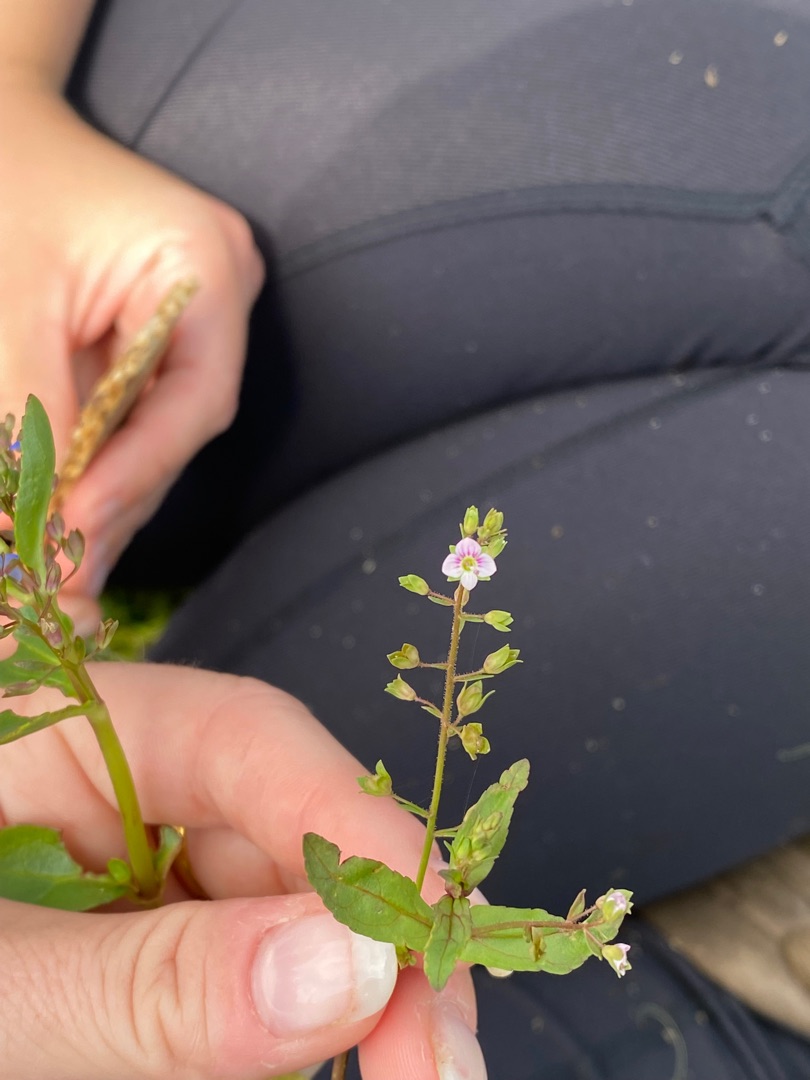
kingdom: Plantae
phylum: Tracheophyta
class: Magnoliopsida
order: Lamiales
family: Plantaginaceae
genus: Veronica
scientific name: Veronica catenata
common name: Vand-ærenpris
